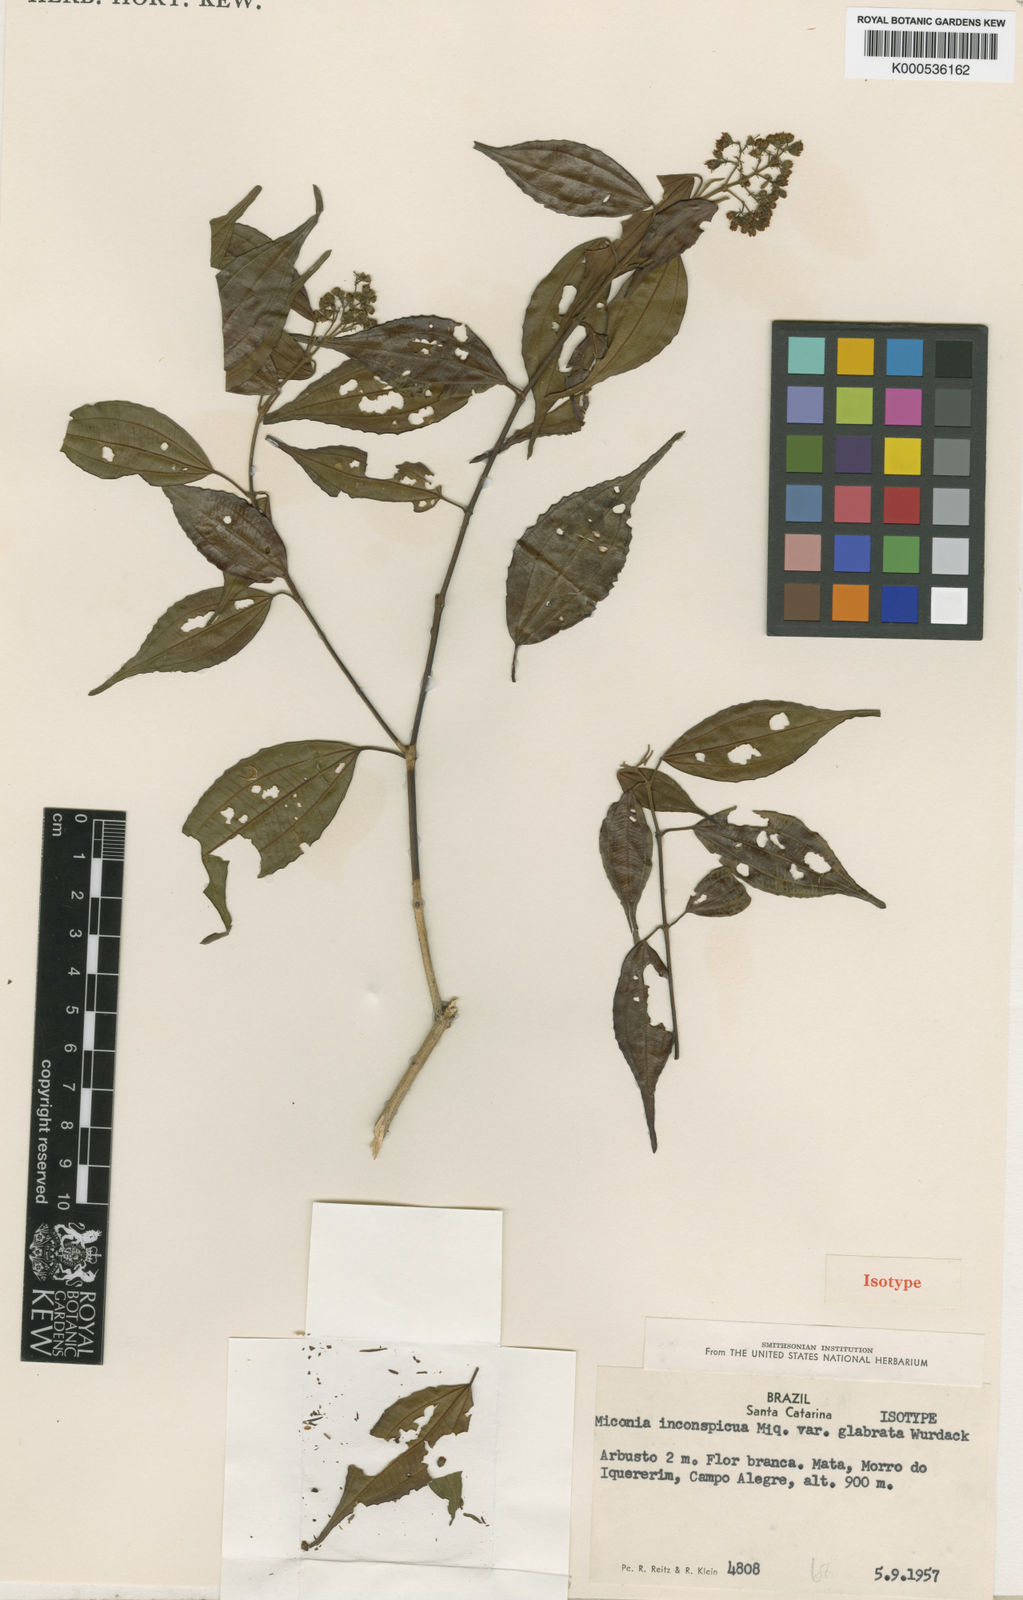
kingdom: Plantae
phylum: Tracheophyta
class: Magnoliopsida
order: Myrtales
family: Melastomataceae
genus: Miconia
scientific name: Miconia inconspicua
